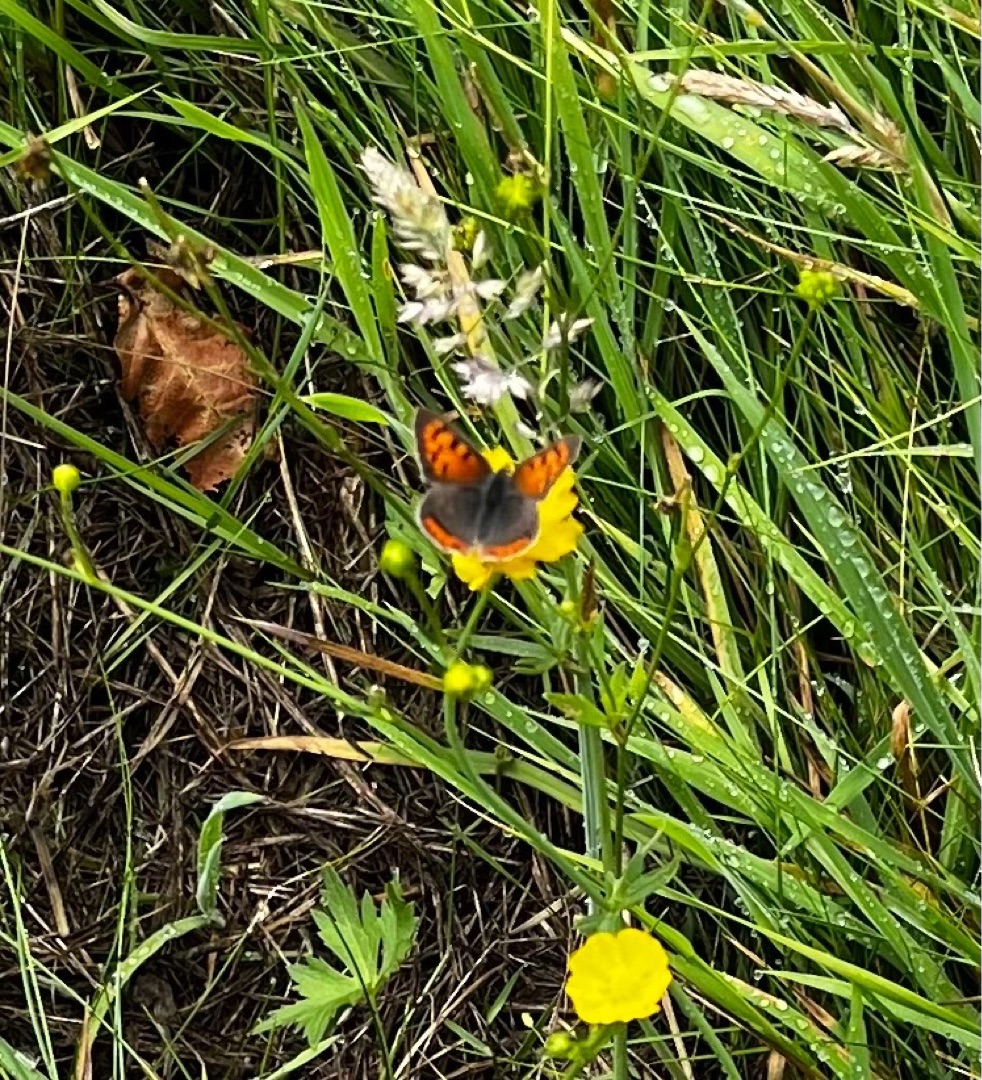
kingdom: Animalia
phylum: Arthropoda
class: Insecta
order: Lepidoptera
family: Lycaenidae
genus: Lycaena
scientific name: Lycaena phlaeas
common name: Lille ildfugl
